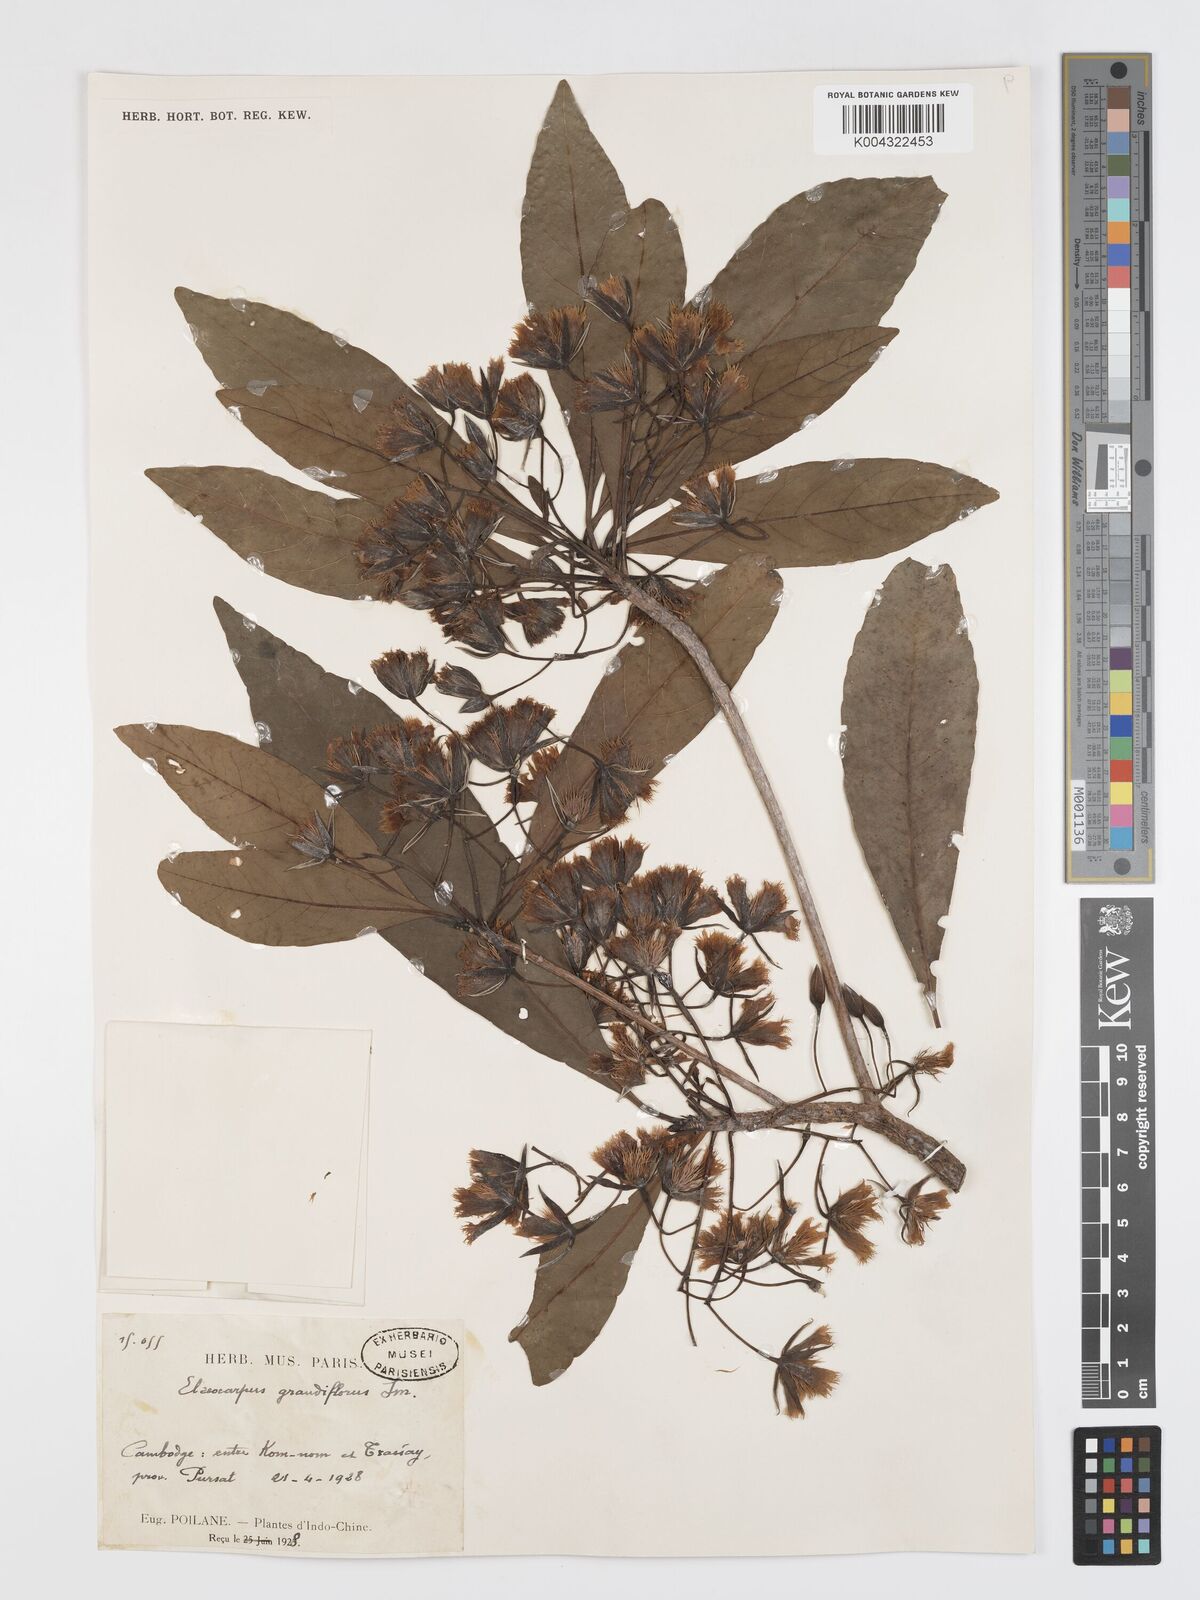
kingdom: Plantae
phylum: Tracheophyta
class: Magnoliopsida
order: Oxalidales
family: Elaeocarpaceae
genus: Elaeocarpus
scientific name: Elaeocarpus grandiflorus
